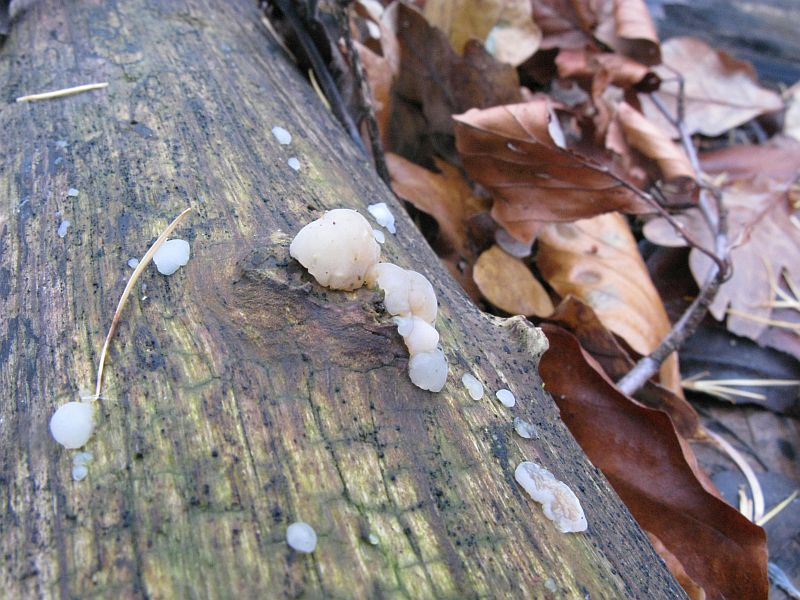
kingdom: Fungi
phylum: Basidiomycota
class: Agaricomycetes
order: Auriculariales
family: Hyaloriaceae
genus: Myxarium
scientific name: Myxarium nucleatum
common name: klar bævretop
